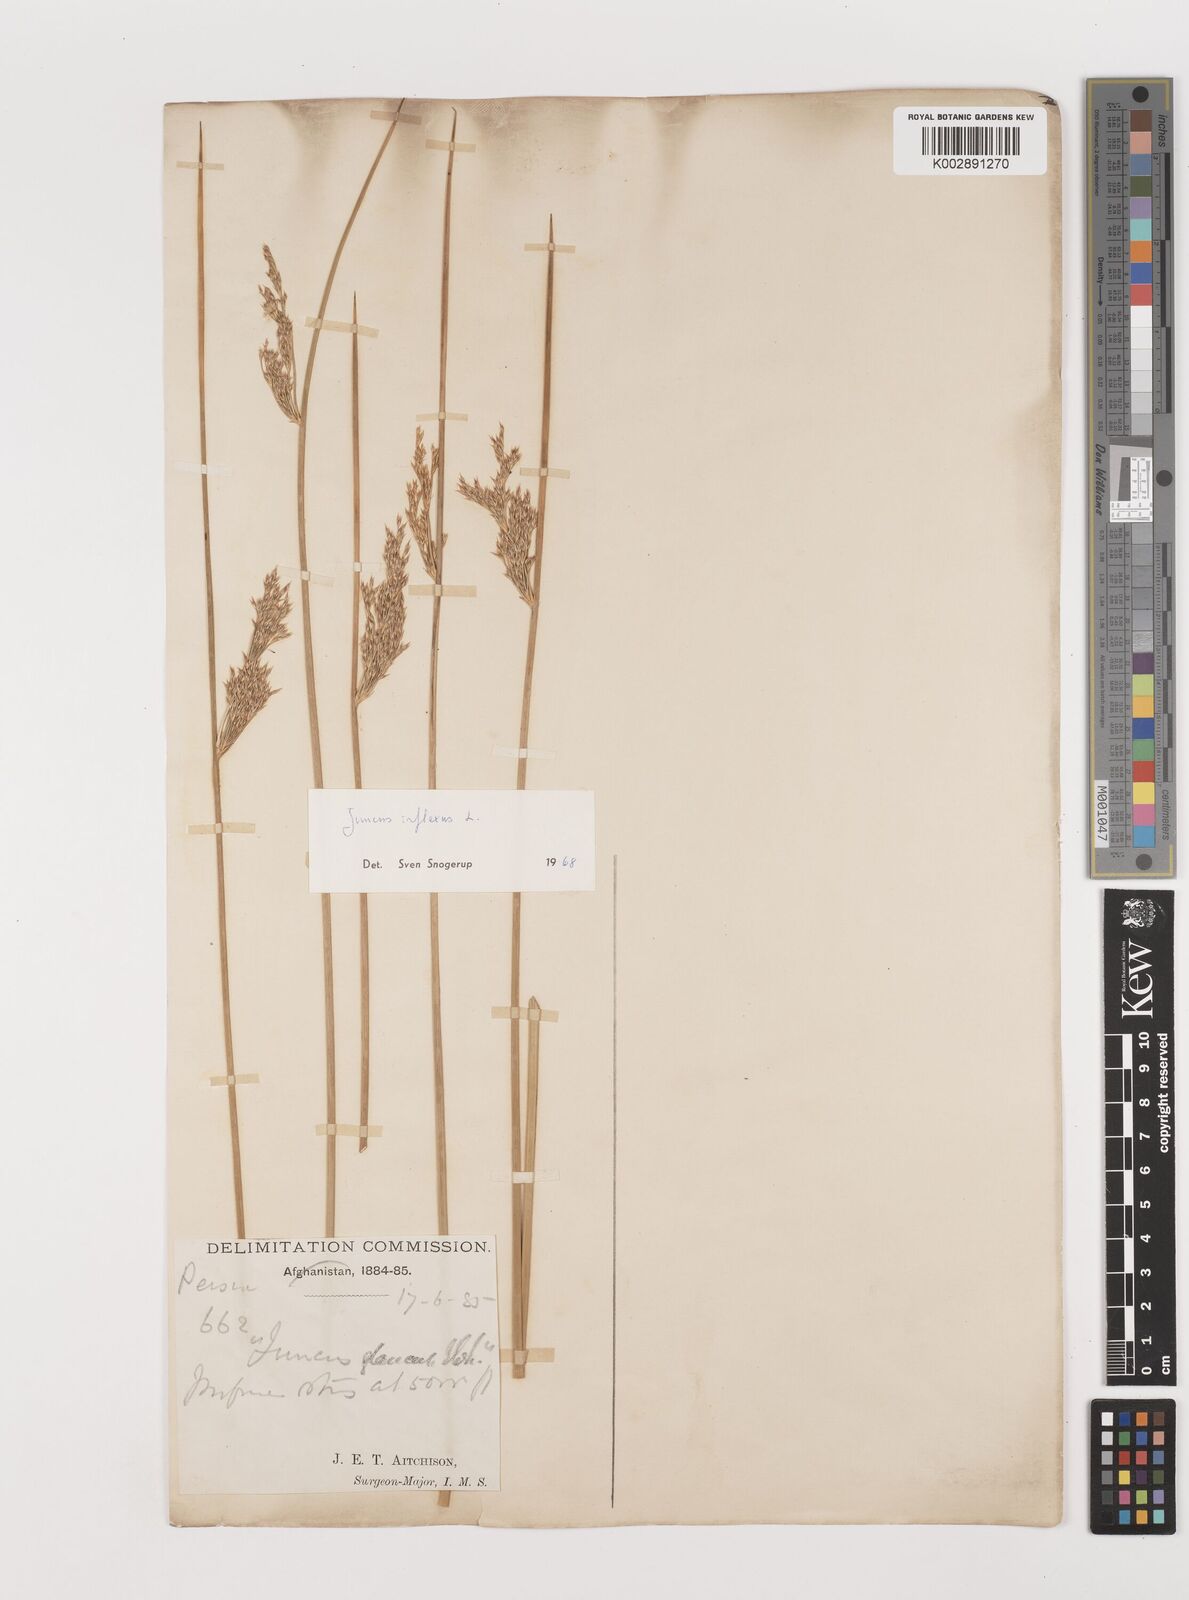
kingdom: Plantae
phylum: Tracheophyta
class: Liliopsida
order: Poales
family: Juncaceae
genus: Juncus
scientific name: Juncus inflexus
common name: Hard rush
